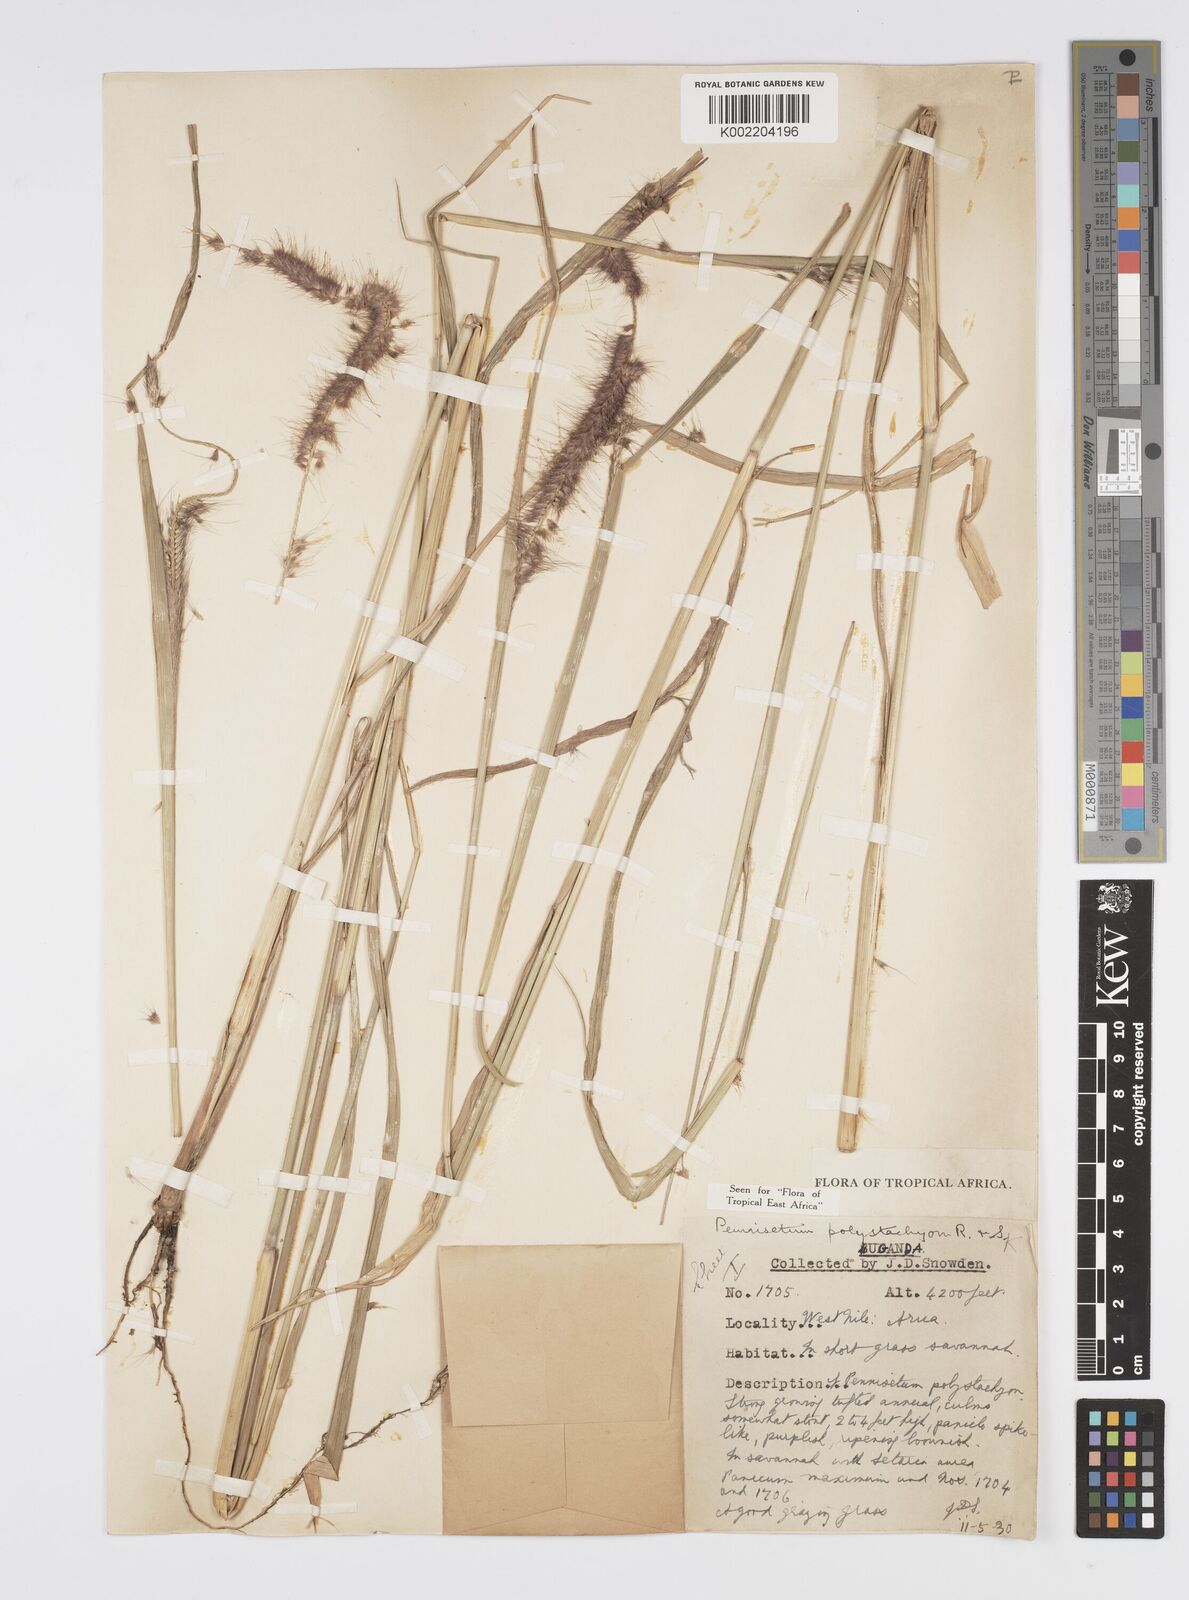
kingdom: Plantae
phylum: Tracheophyta
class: Liliopsida
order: Poales
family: Poaceae
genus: Setaria
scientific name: Setaria parviflora
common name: Knotroot bristle-grass
